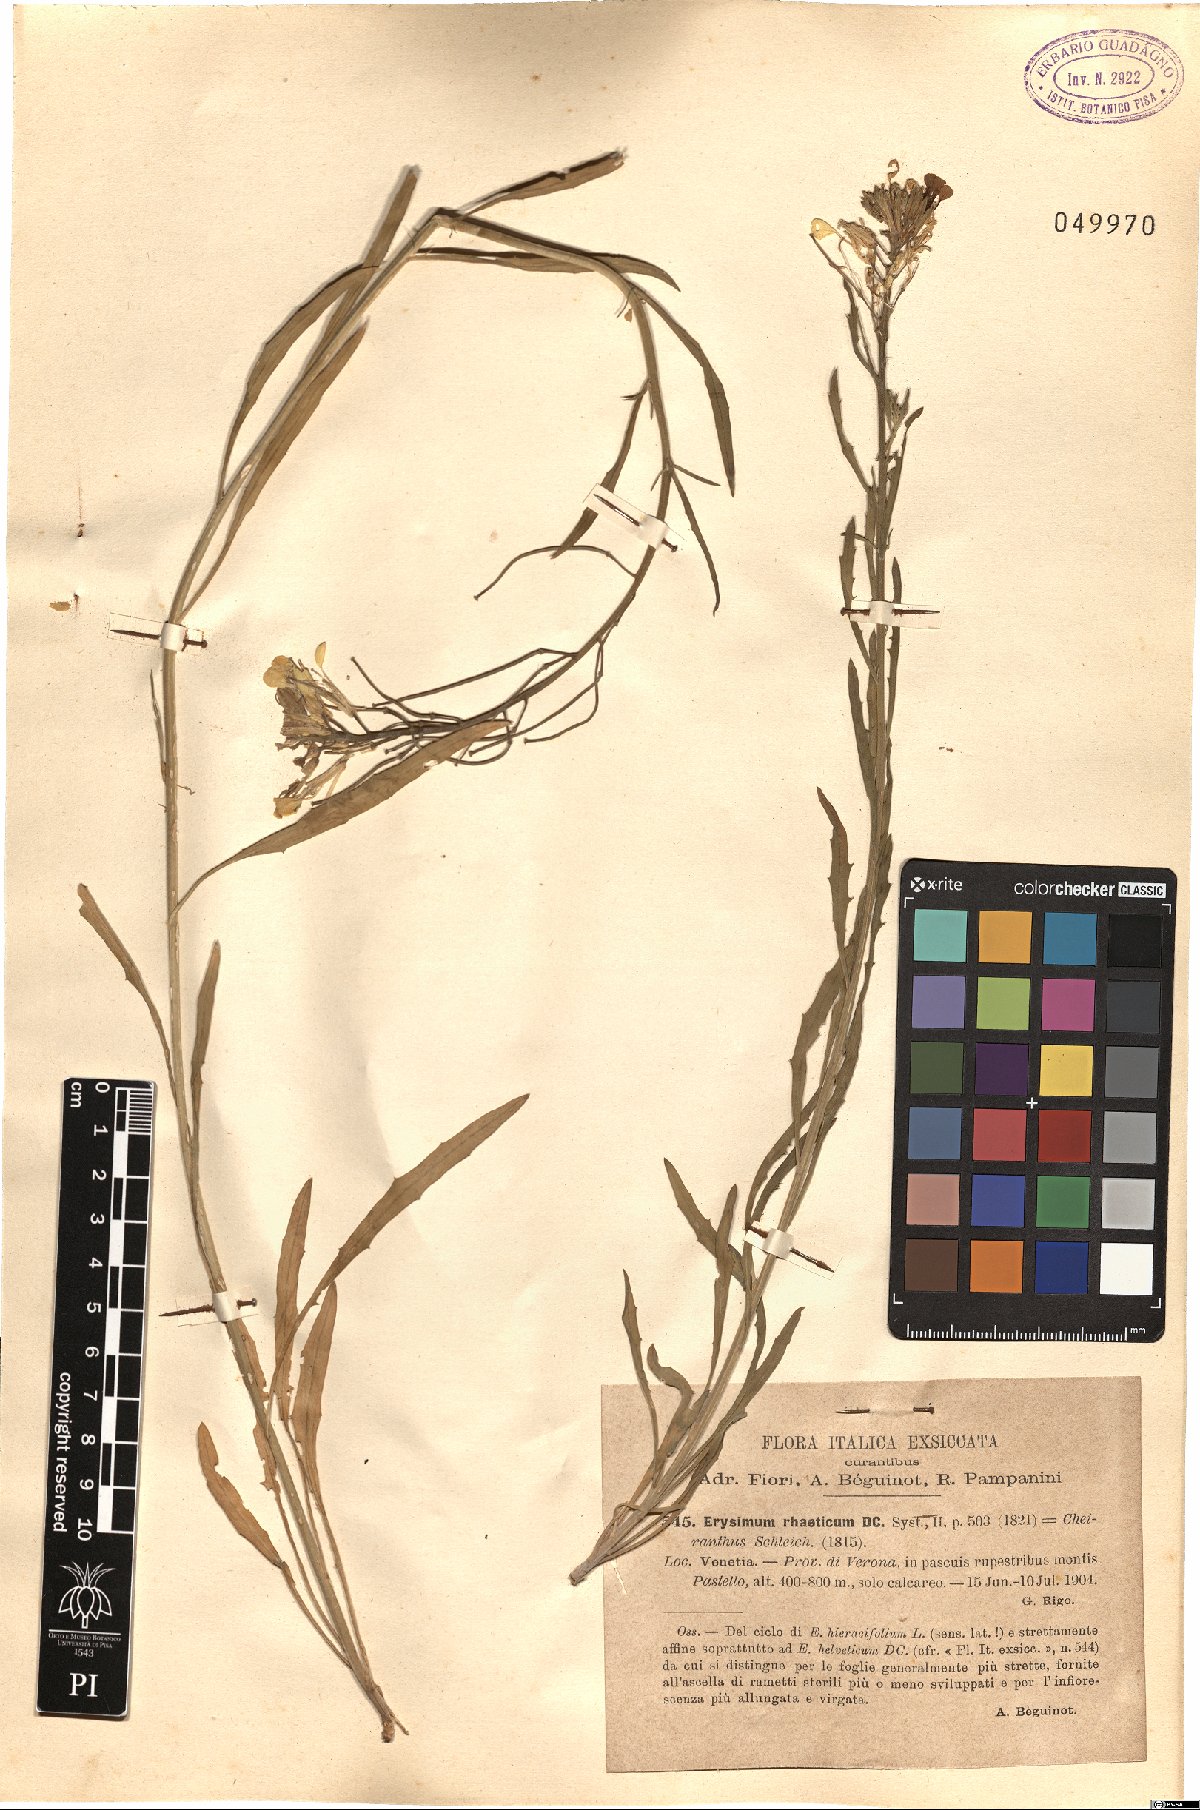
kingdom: Plantae
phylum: Tracheophyta
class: Magnoliopsida
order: Brassicales
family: Brassicaceae
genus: Erysimum
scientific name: Erysimum rhaeticum
